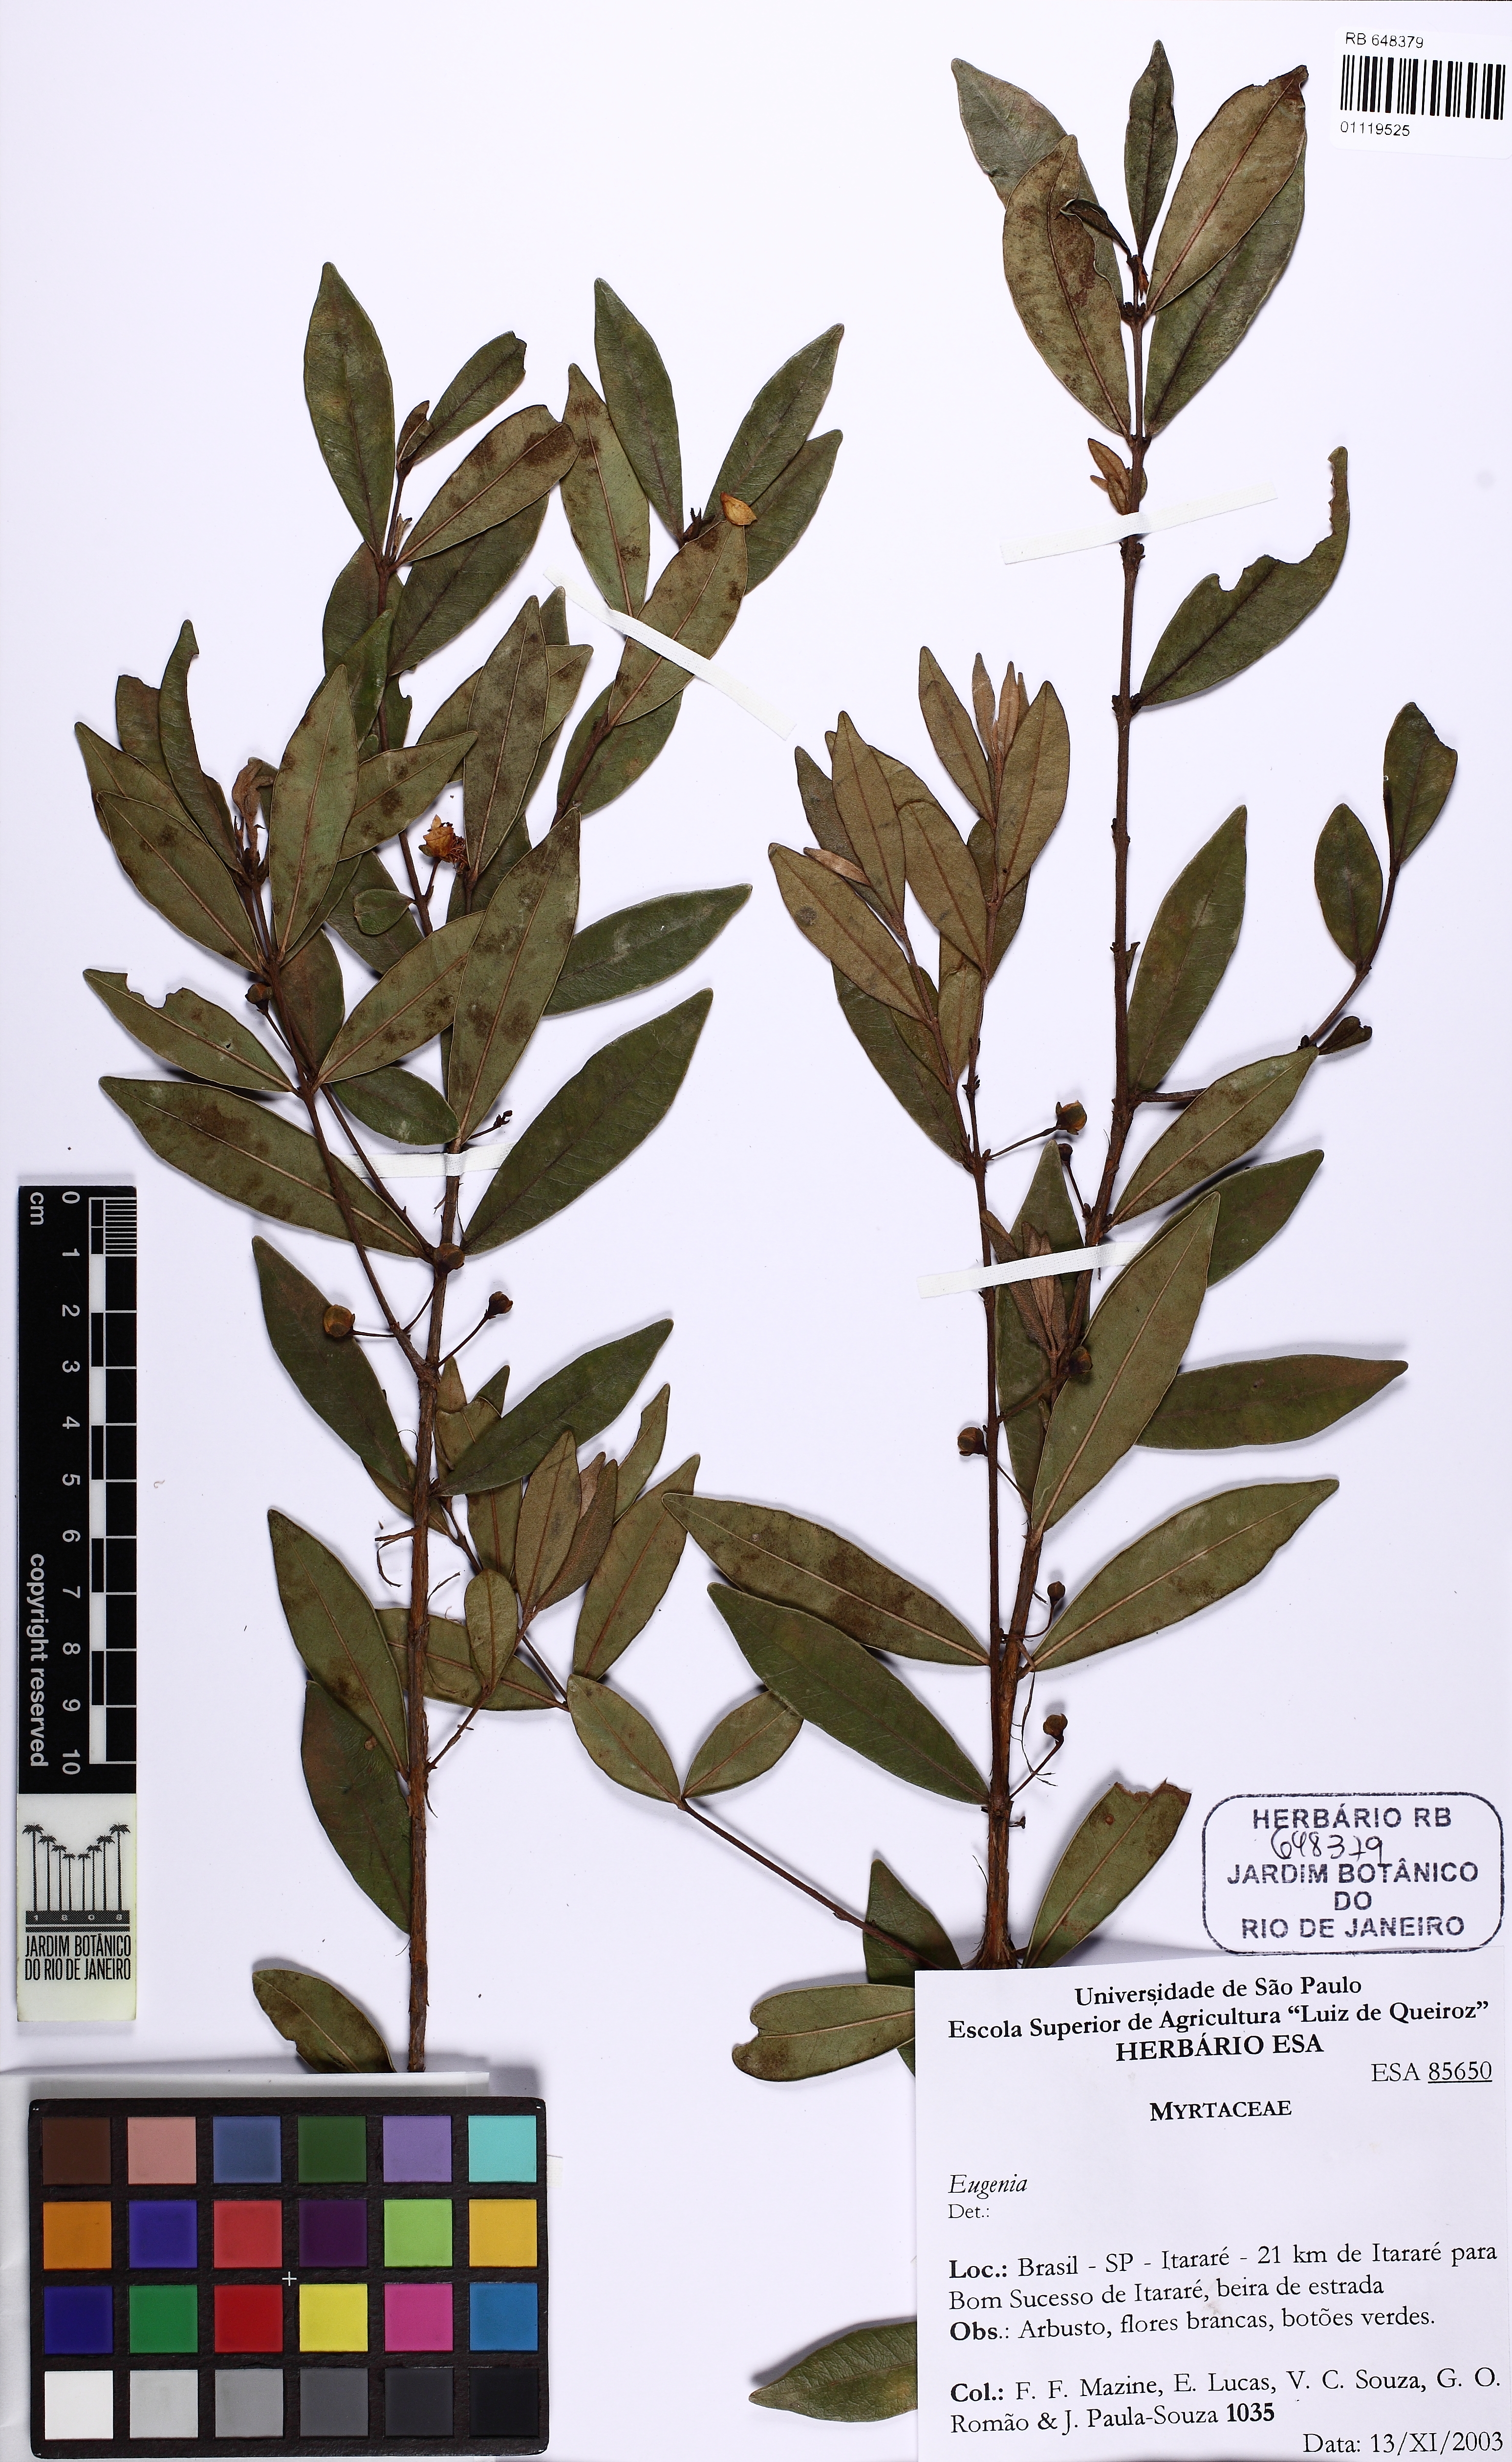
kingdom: Plantae
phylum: Tracheophyta
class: Magnoliopsida
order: Myrtales
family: Myrtaceae
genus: Eugenia
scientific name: Eugenia punicifolia
